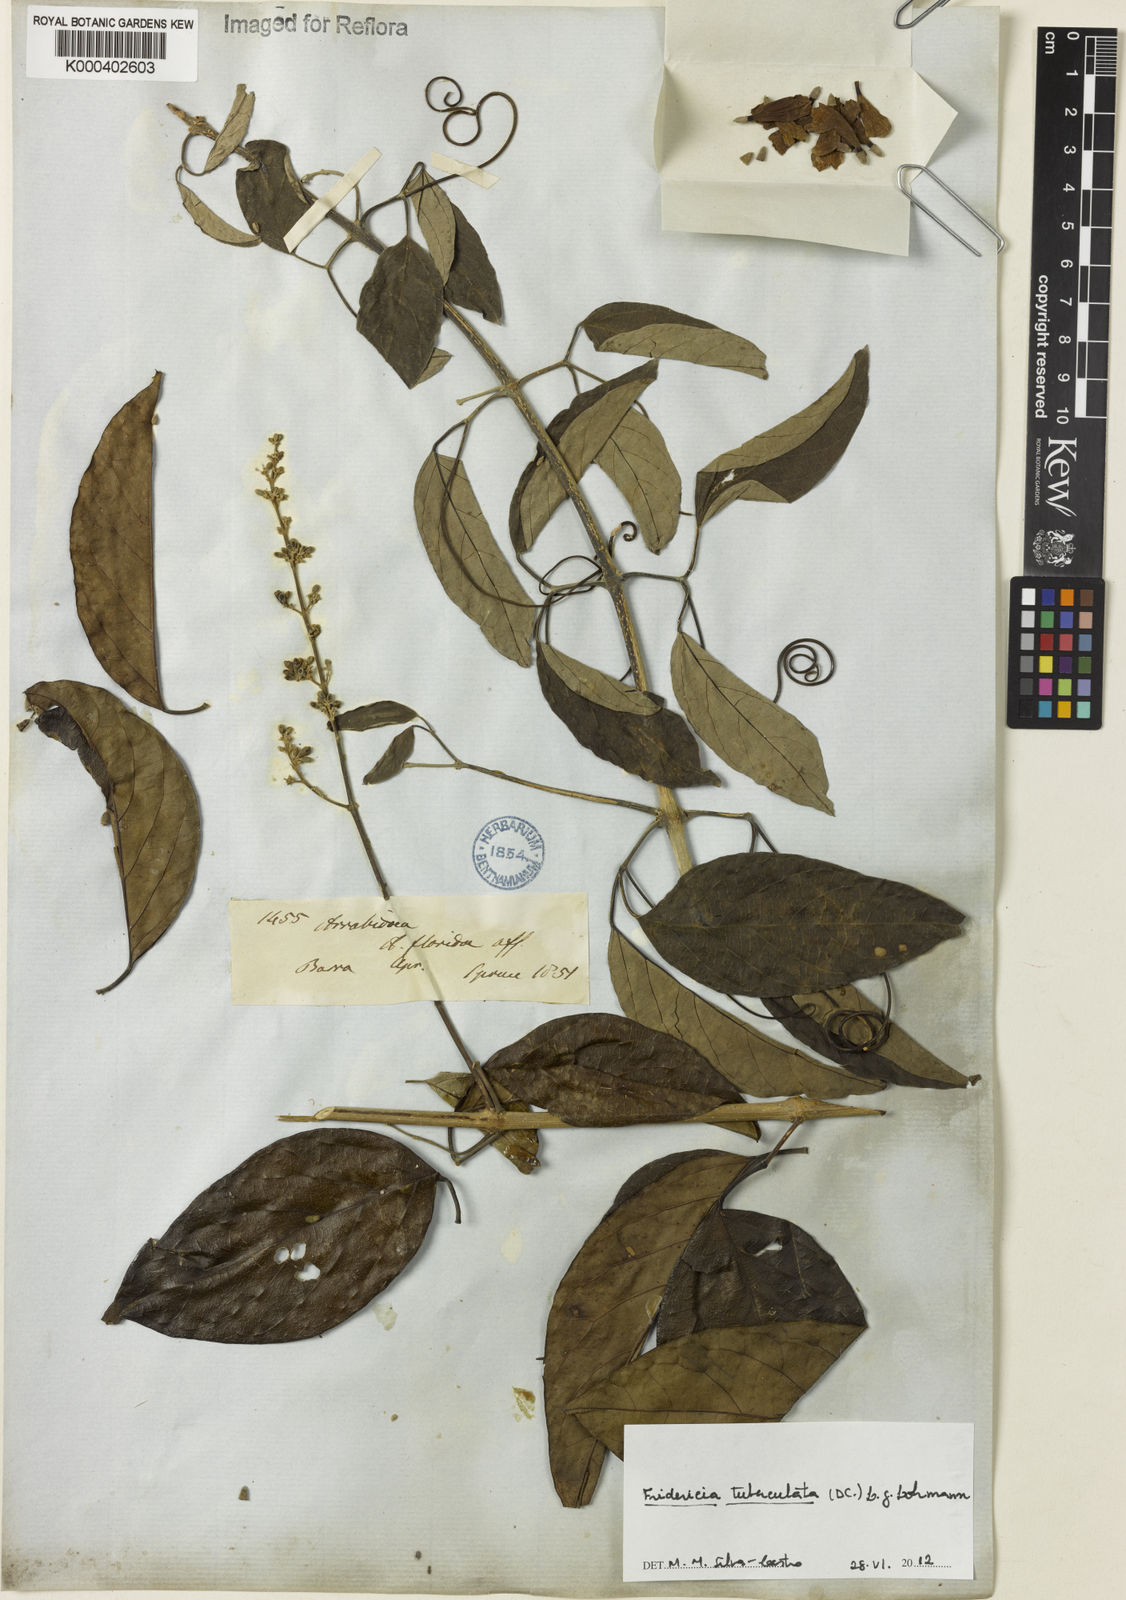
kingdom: Plantae
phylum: Tracheophyta
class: Magnoliopsida
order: Lamiales
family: Bignoniaceae
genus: Fridericia
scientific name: Fridericia tuberculata
